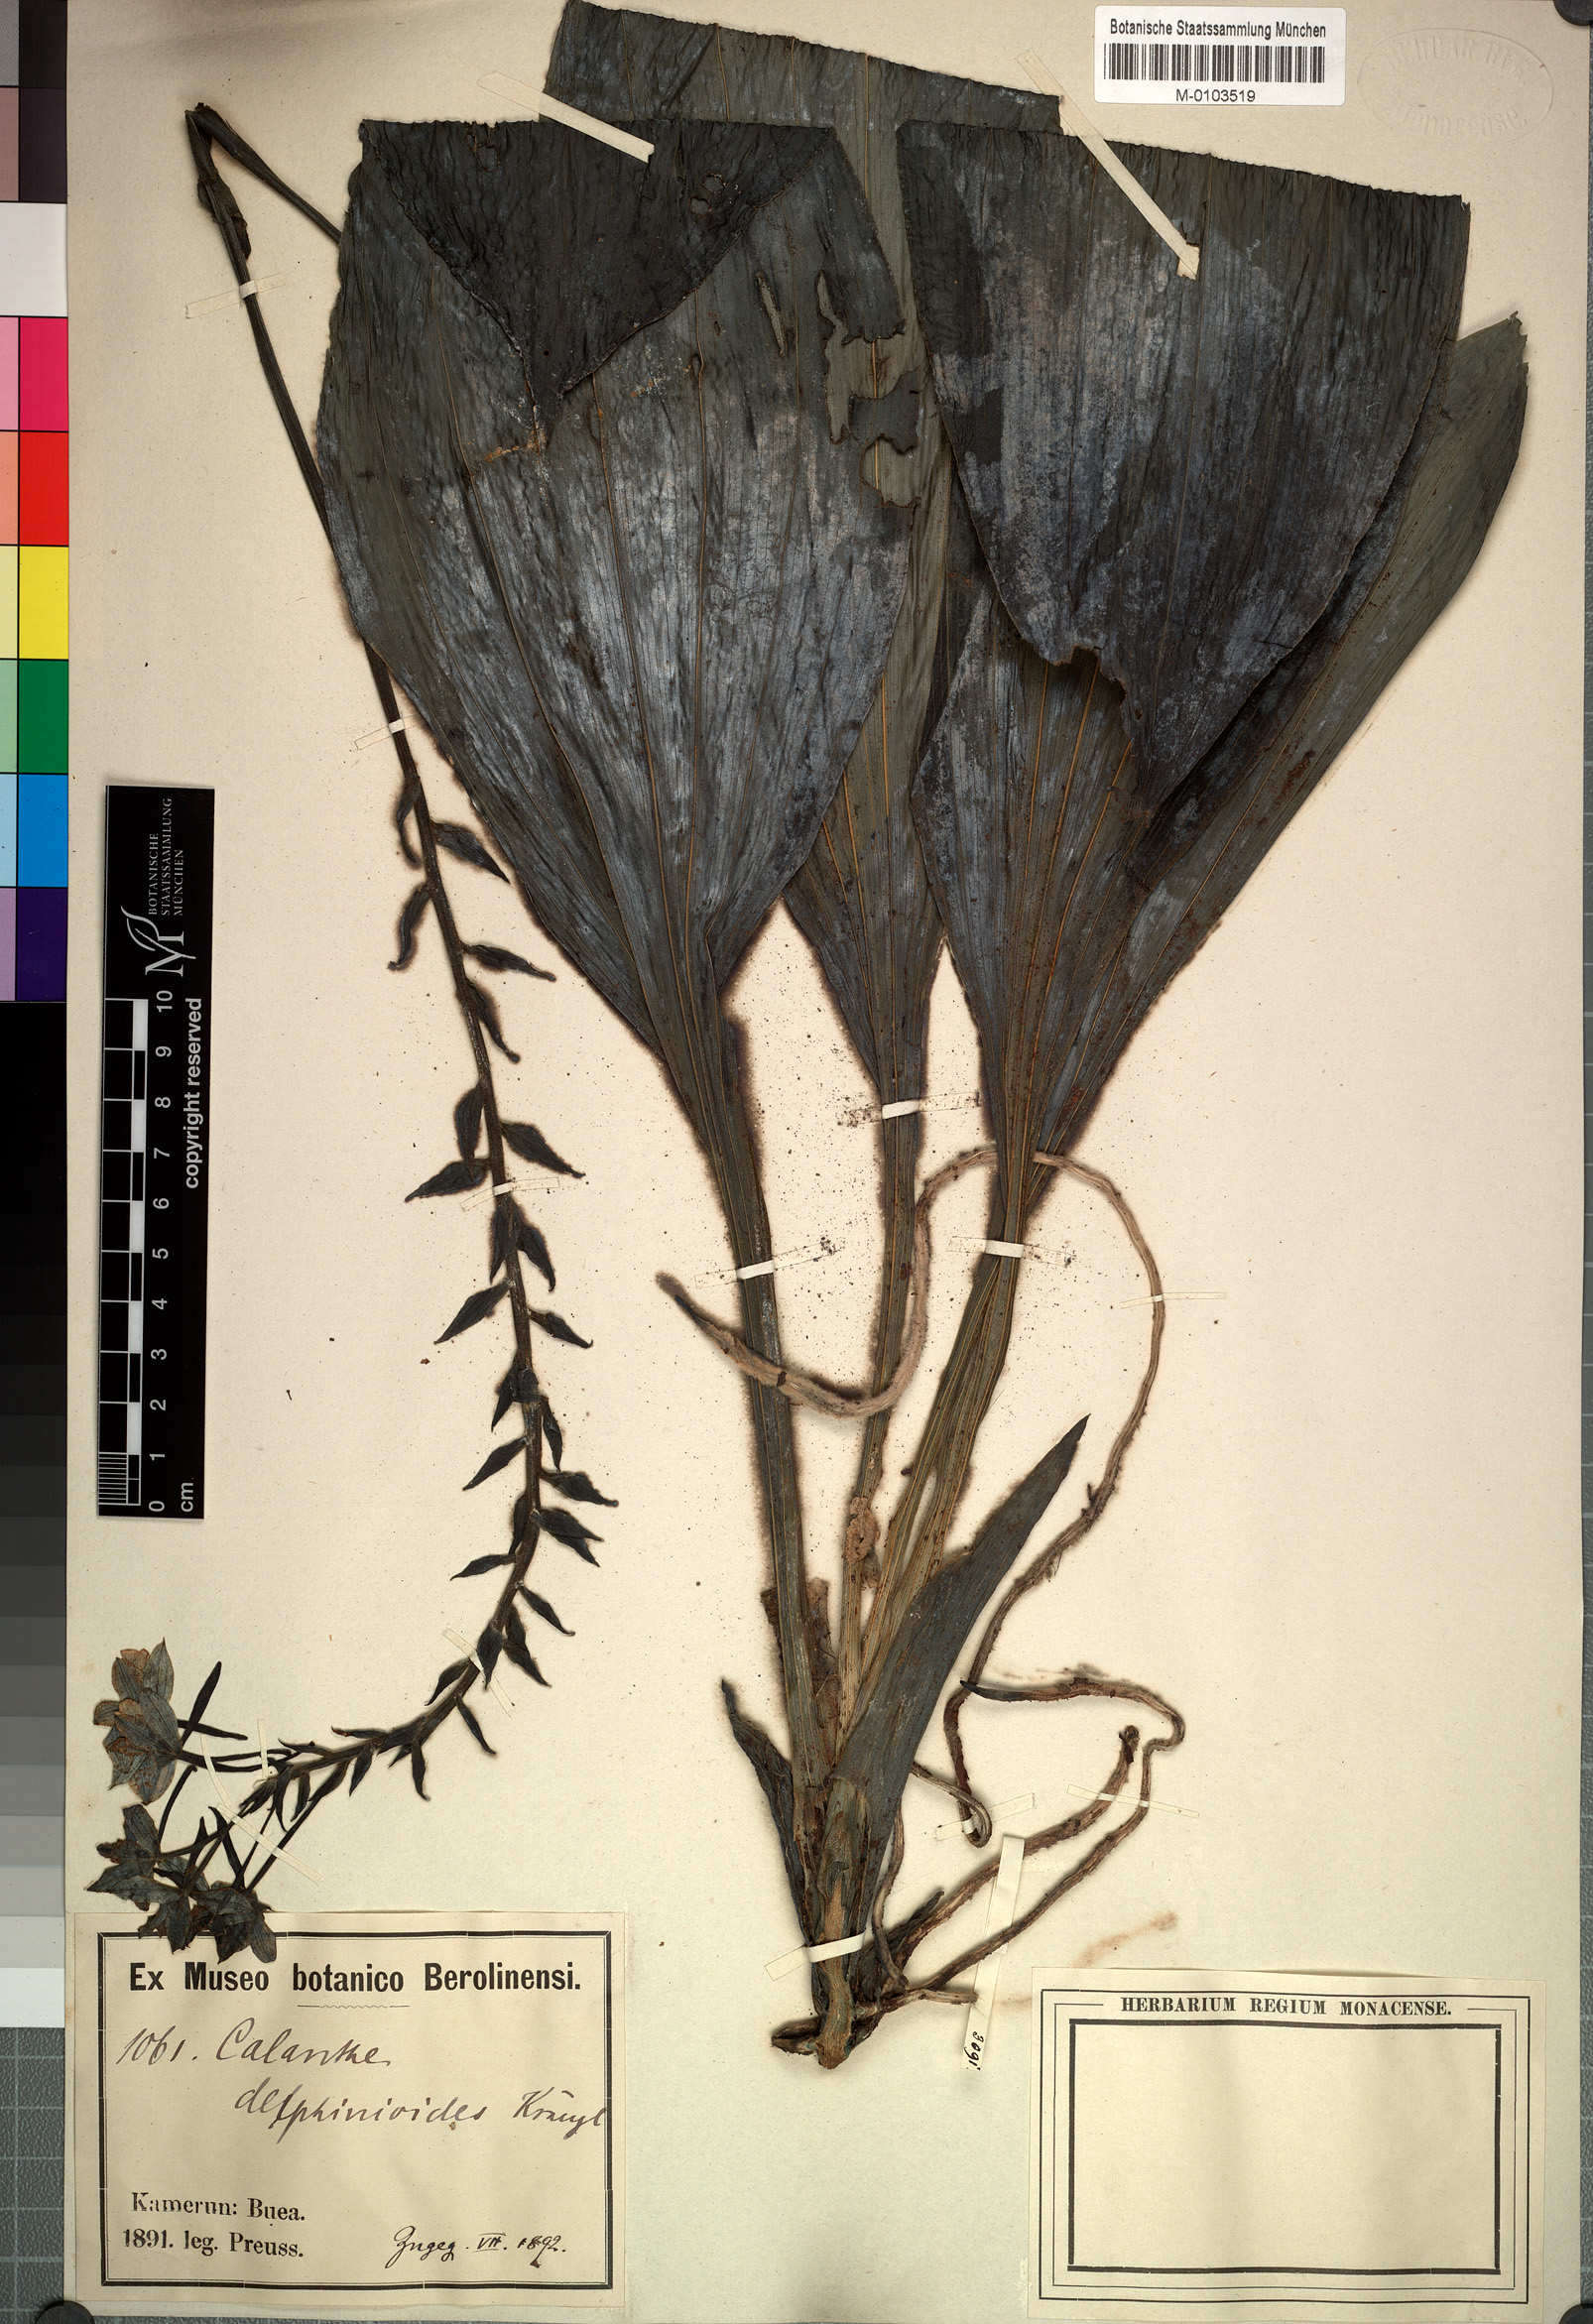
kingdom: Plantae
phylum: Tracheophyta
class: Liliopsida
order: Asparagales
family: Orchidaceae
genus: Calanthe
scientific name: Calanthe sylvatica
